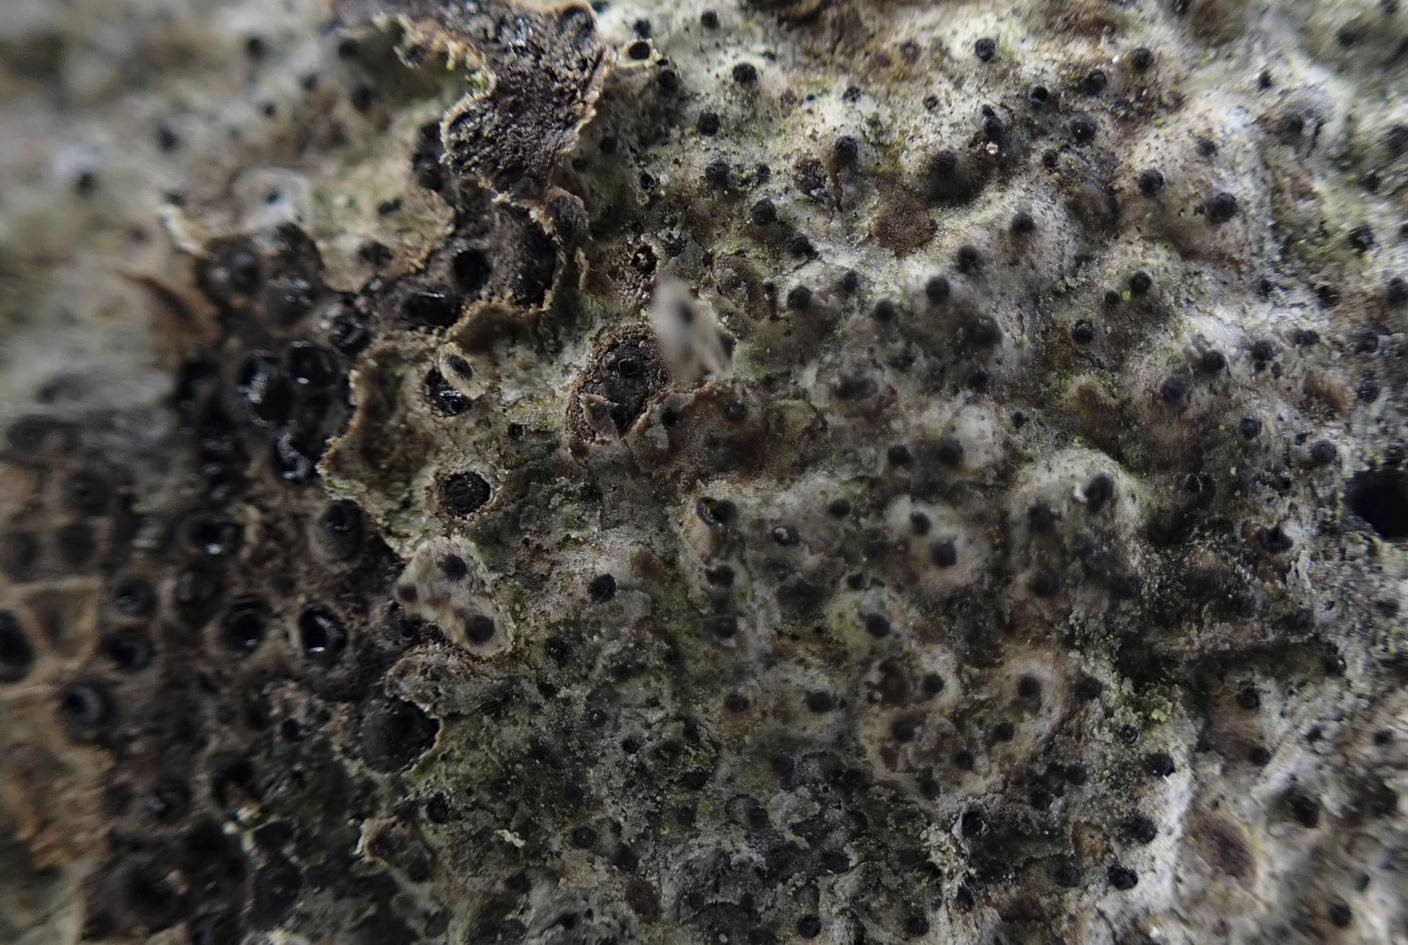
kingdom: Fungi
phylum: Ascomycota
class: Sordariomycetes
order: Diaporthales
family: Valsaceae
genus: Cytospora
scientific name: Cytospora populina
